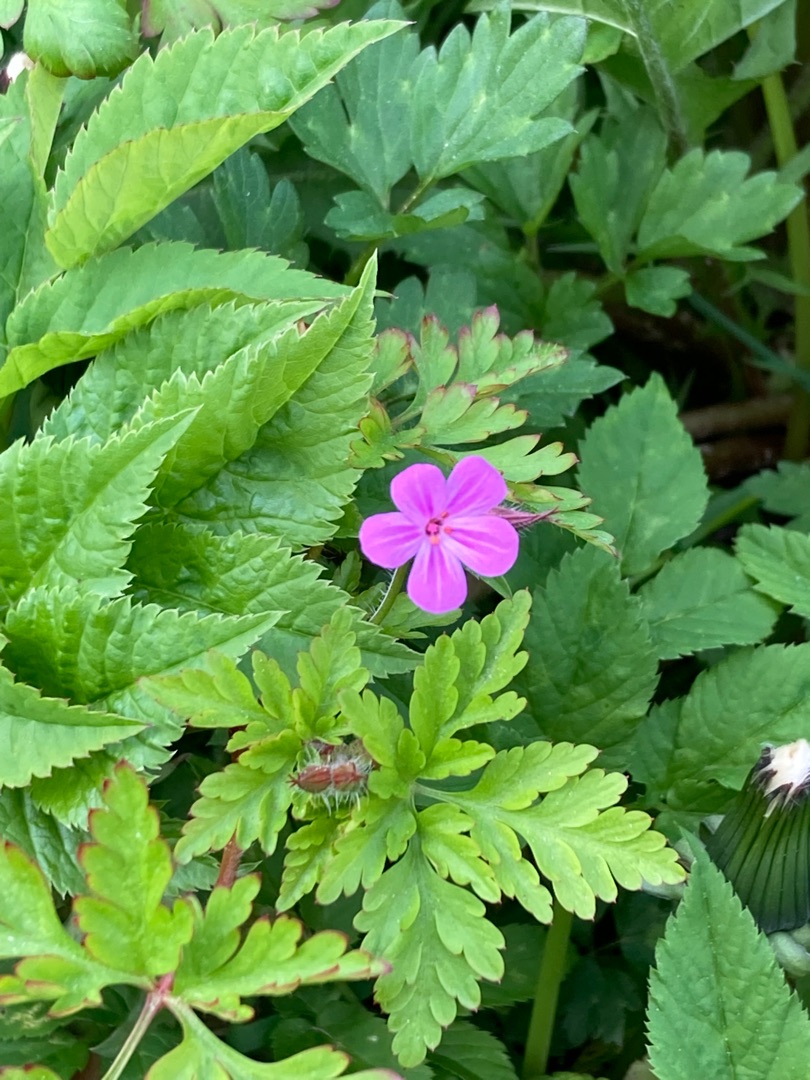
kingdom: Plantae
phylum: Tracheophyta
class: Magnoliopsida
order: Geraniales
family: Geraniaceae
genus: Geranium
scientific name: Geranium robertianum
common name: Stinkende storkenæb
